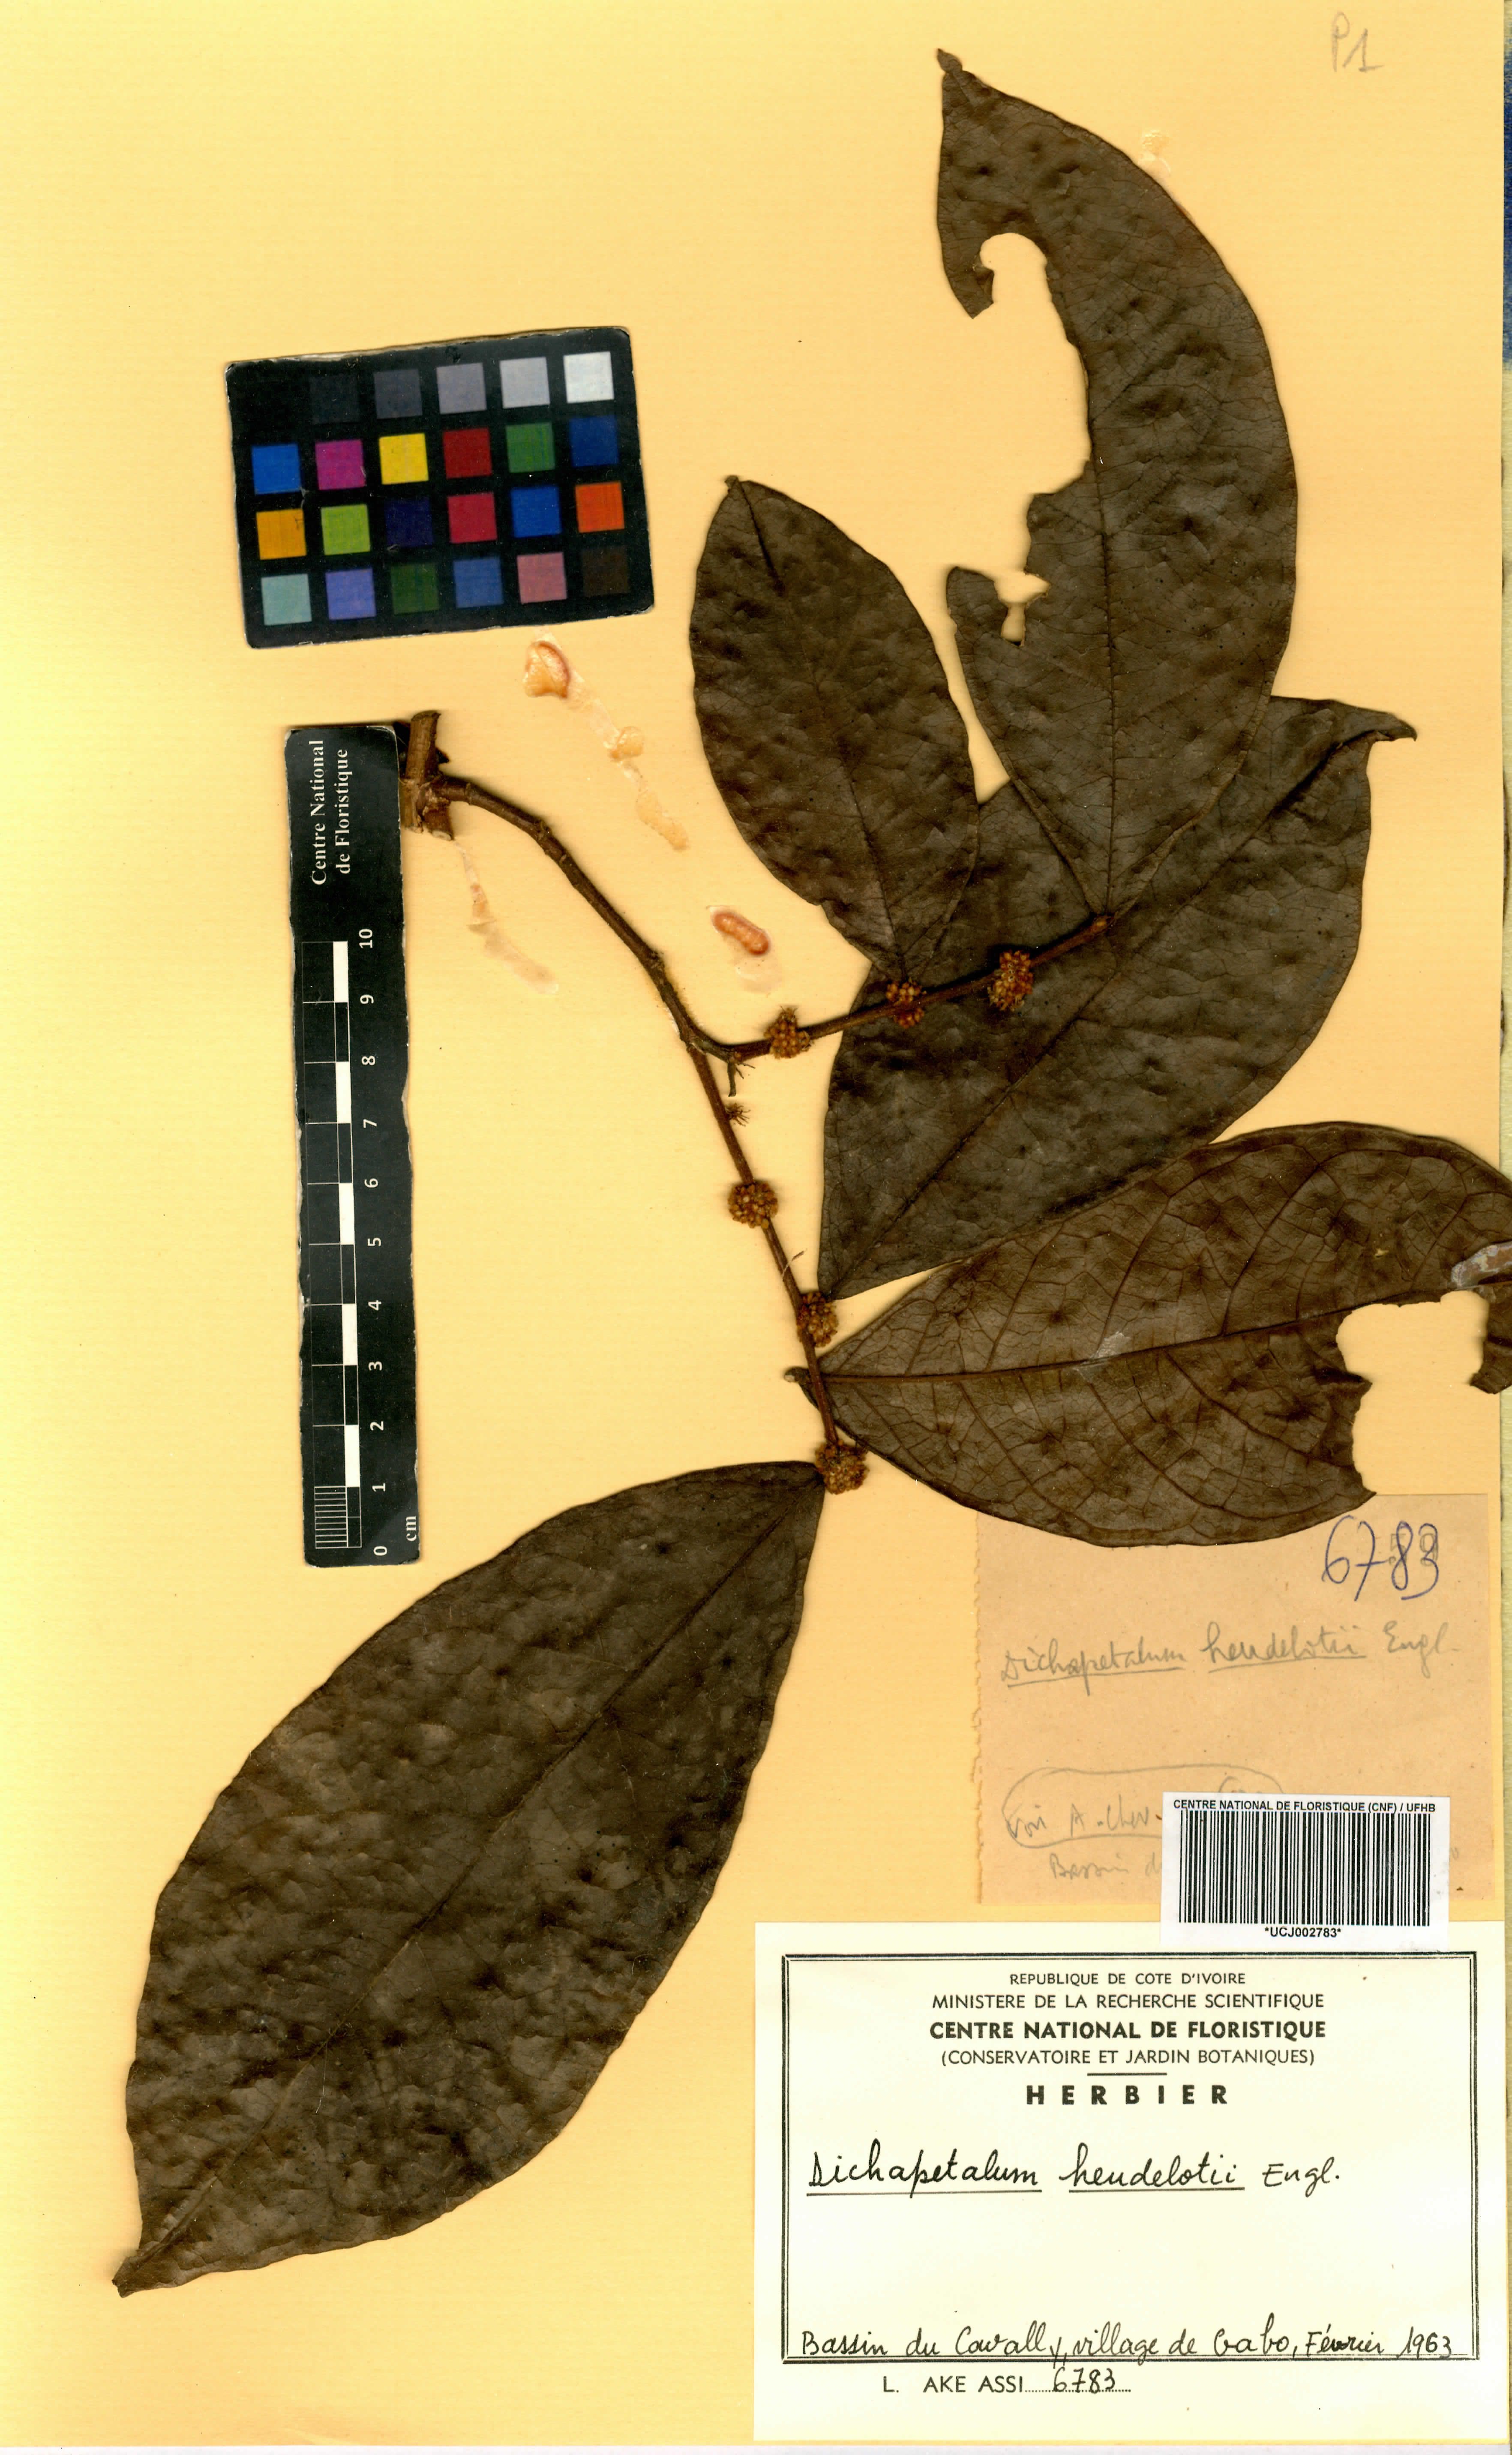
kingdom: Plantae
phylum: Tracheophyta
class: Magnoliopsida
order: Malpighiales
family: Dichapetalaceae
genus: Dichapetalum
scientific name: Dichapetalum heudelotii
